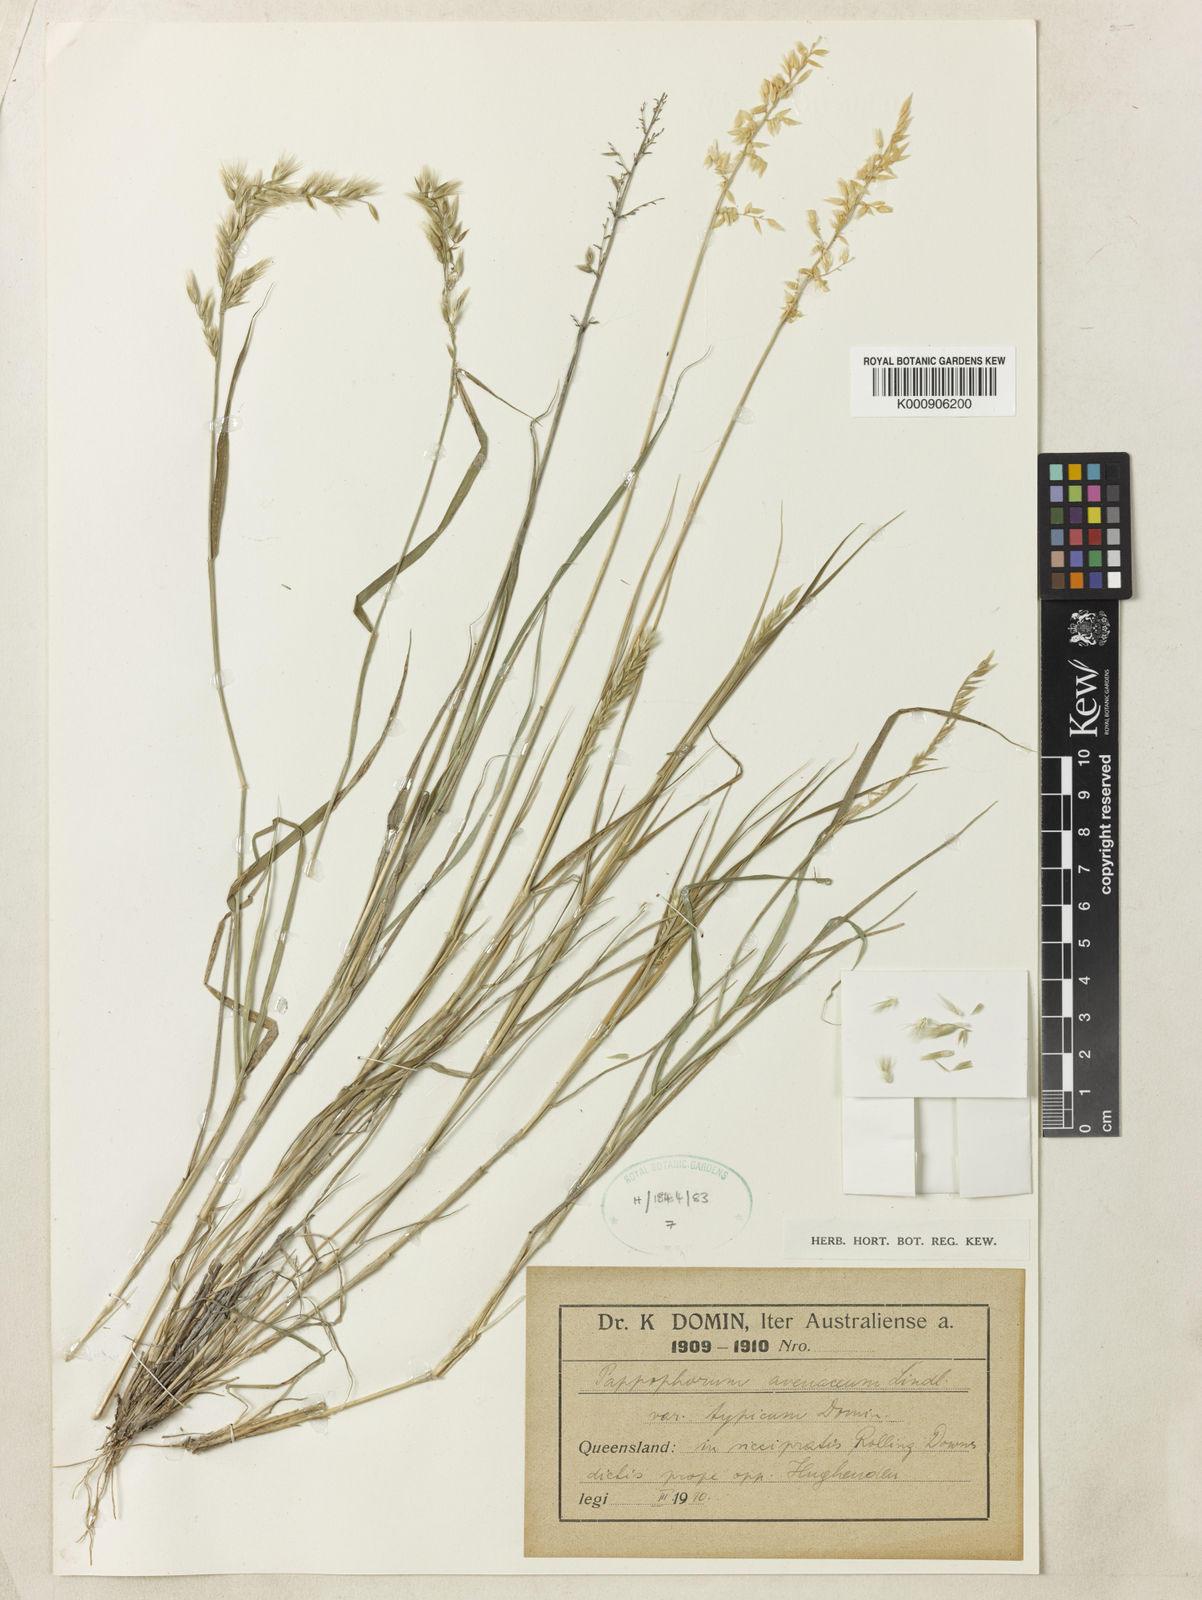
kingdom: Plantae
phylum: Tracheophyta
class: Liliopsida
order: Poales
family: Poaceae
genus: Enneapogon
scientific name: Enneapogon avenaceus
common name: Hairy oat grass
